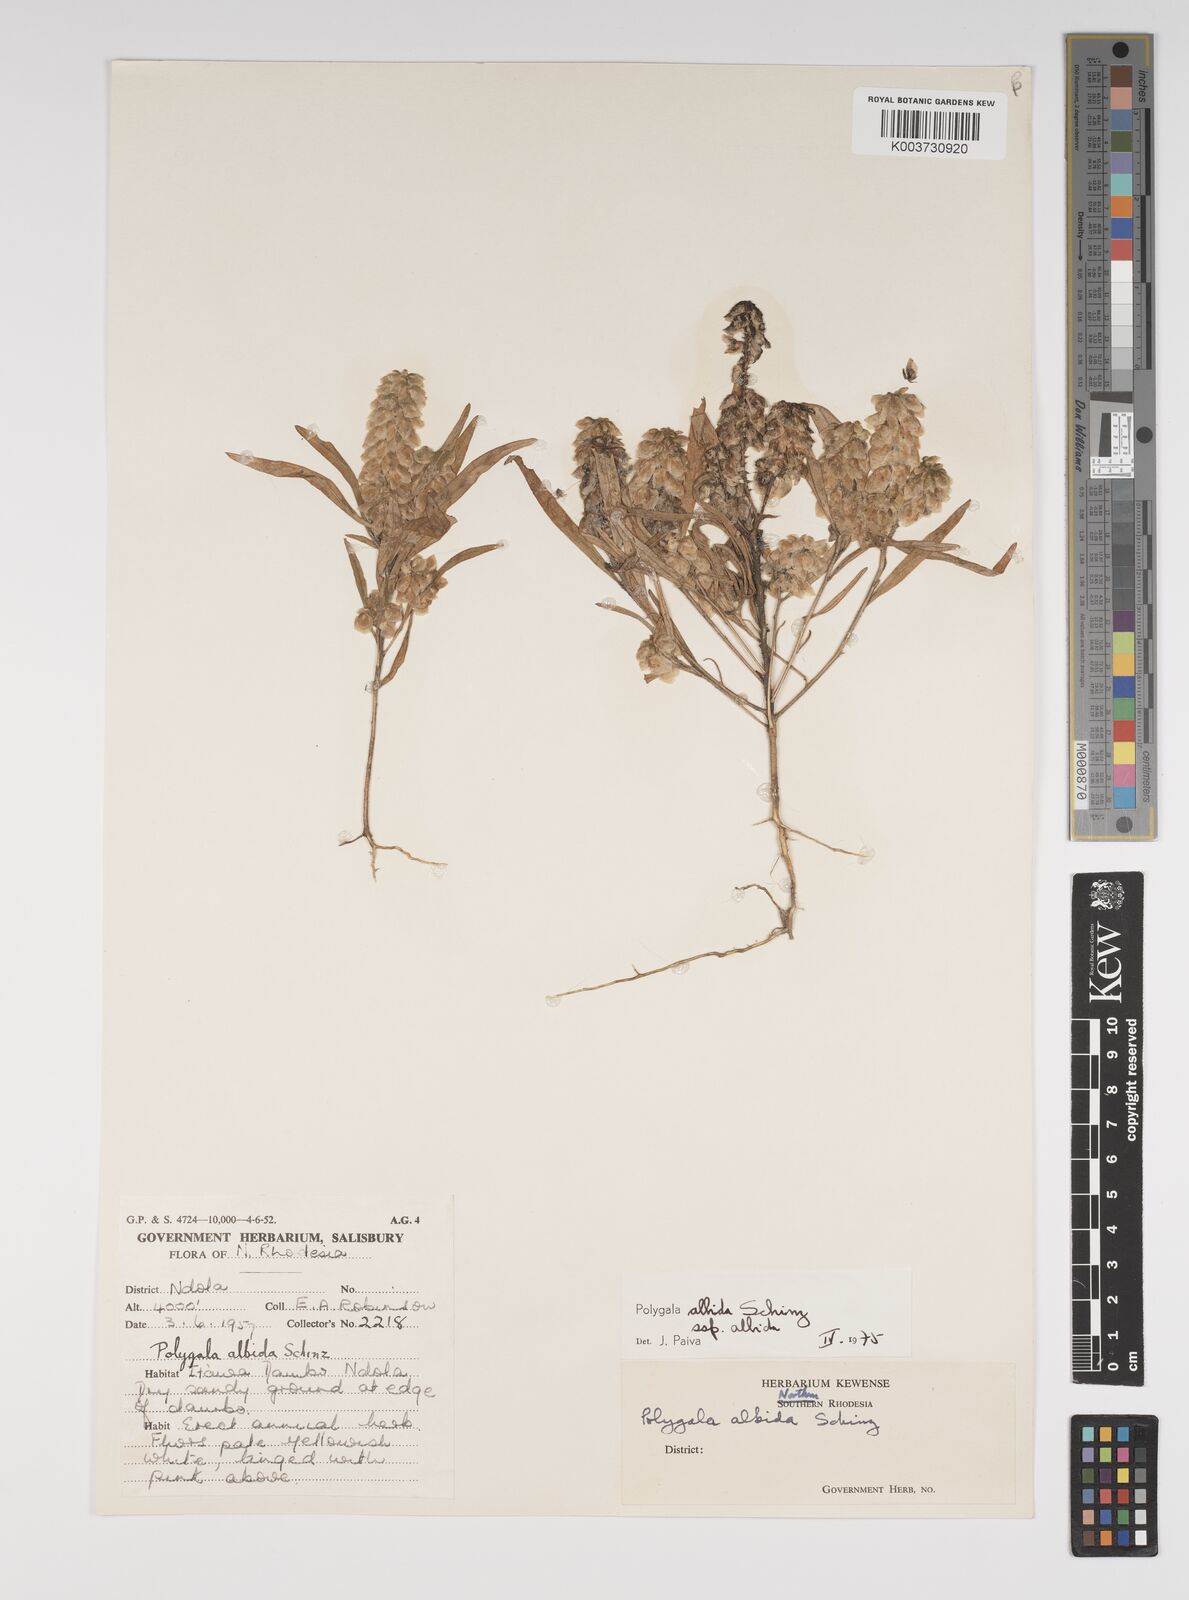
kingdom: Plantae
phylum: Tracheophyta
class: Magnoliopsida
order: Fabales
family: Polygalaceae
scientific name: Polygalaceae
